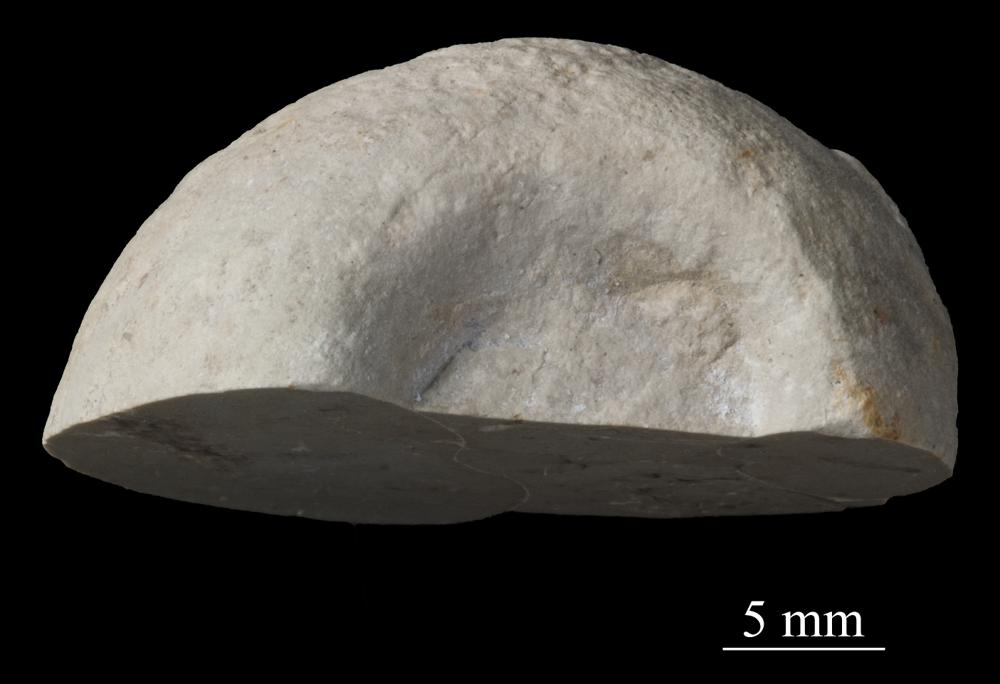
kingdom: Animalia
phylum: Mollusca
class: Gastropoda
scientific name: Gastropoda
